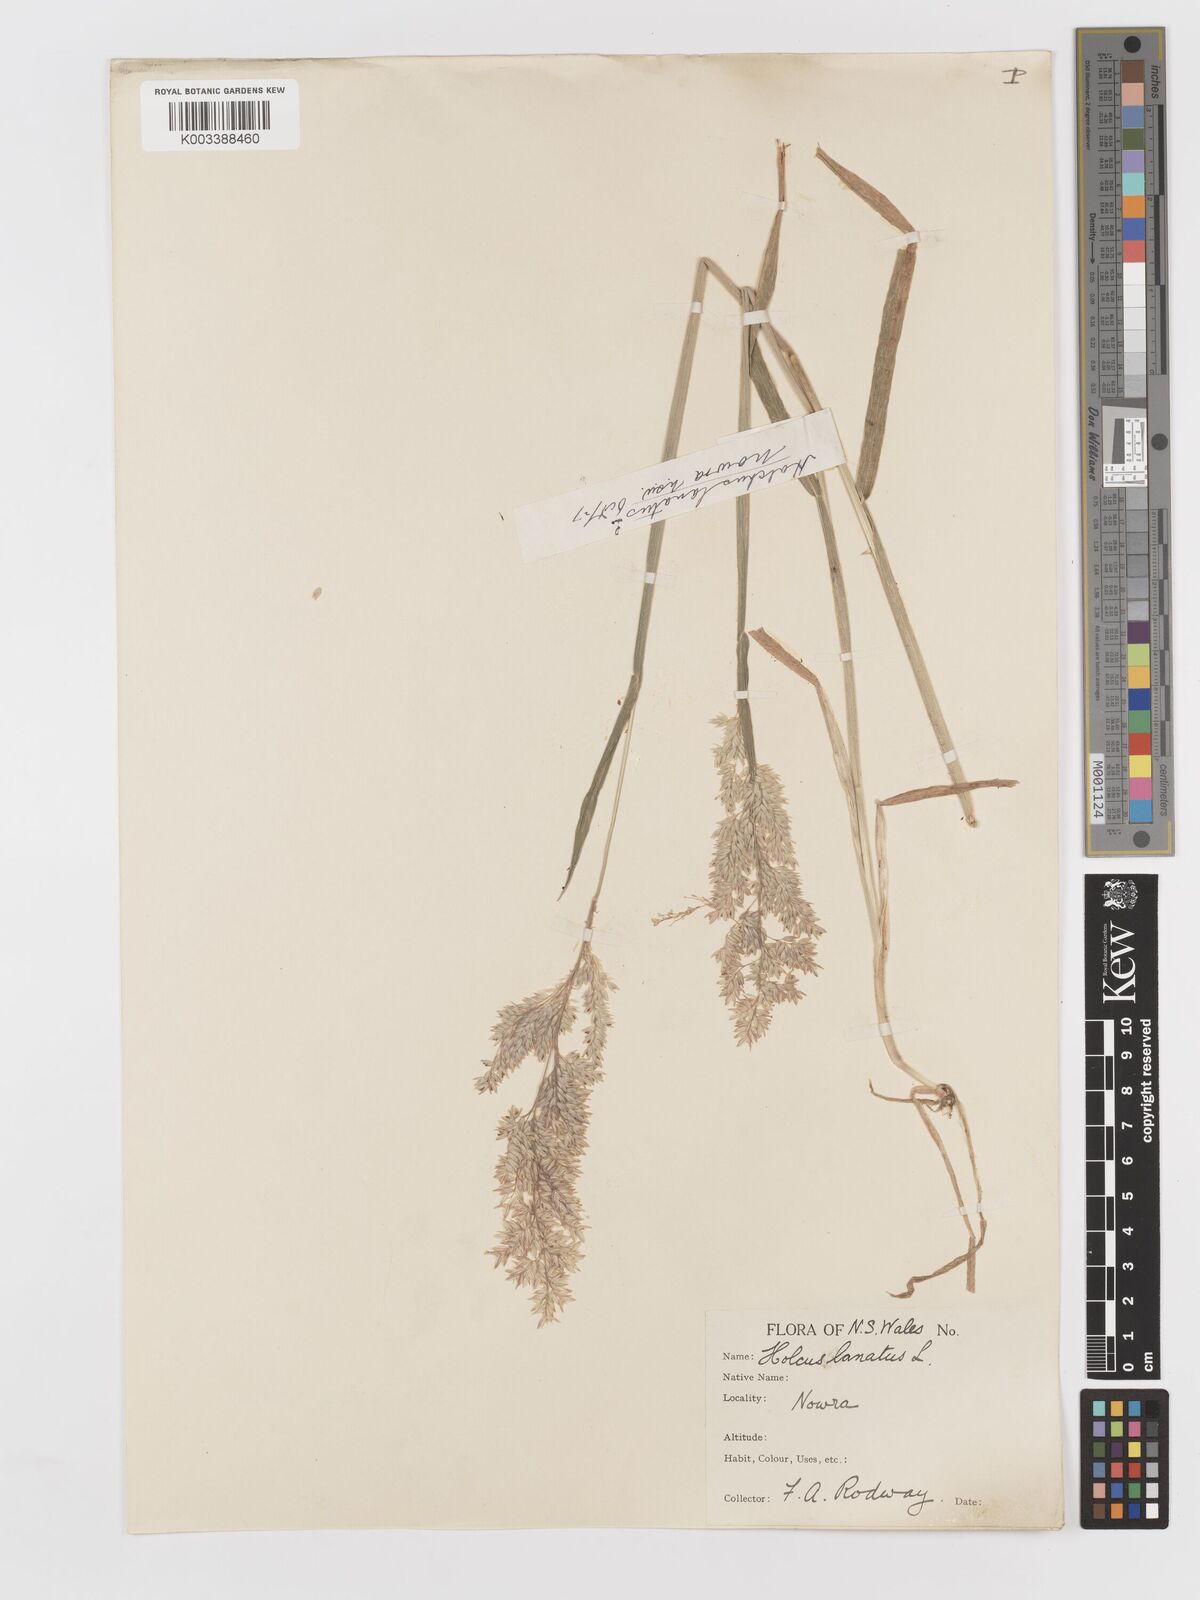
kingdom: Plantae
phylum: Tracheophyta
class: Liliopsida
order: Poales
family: Poaceae
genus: Holcus
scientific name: Holcus lanatus
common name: Yorkshire-fog
